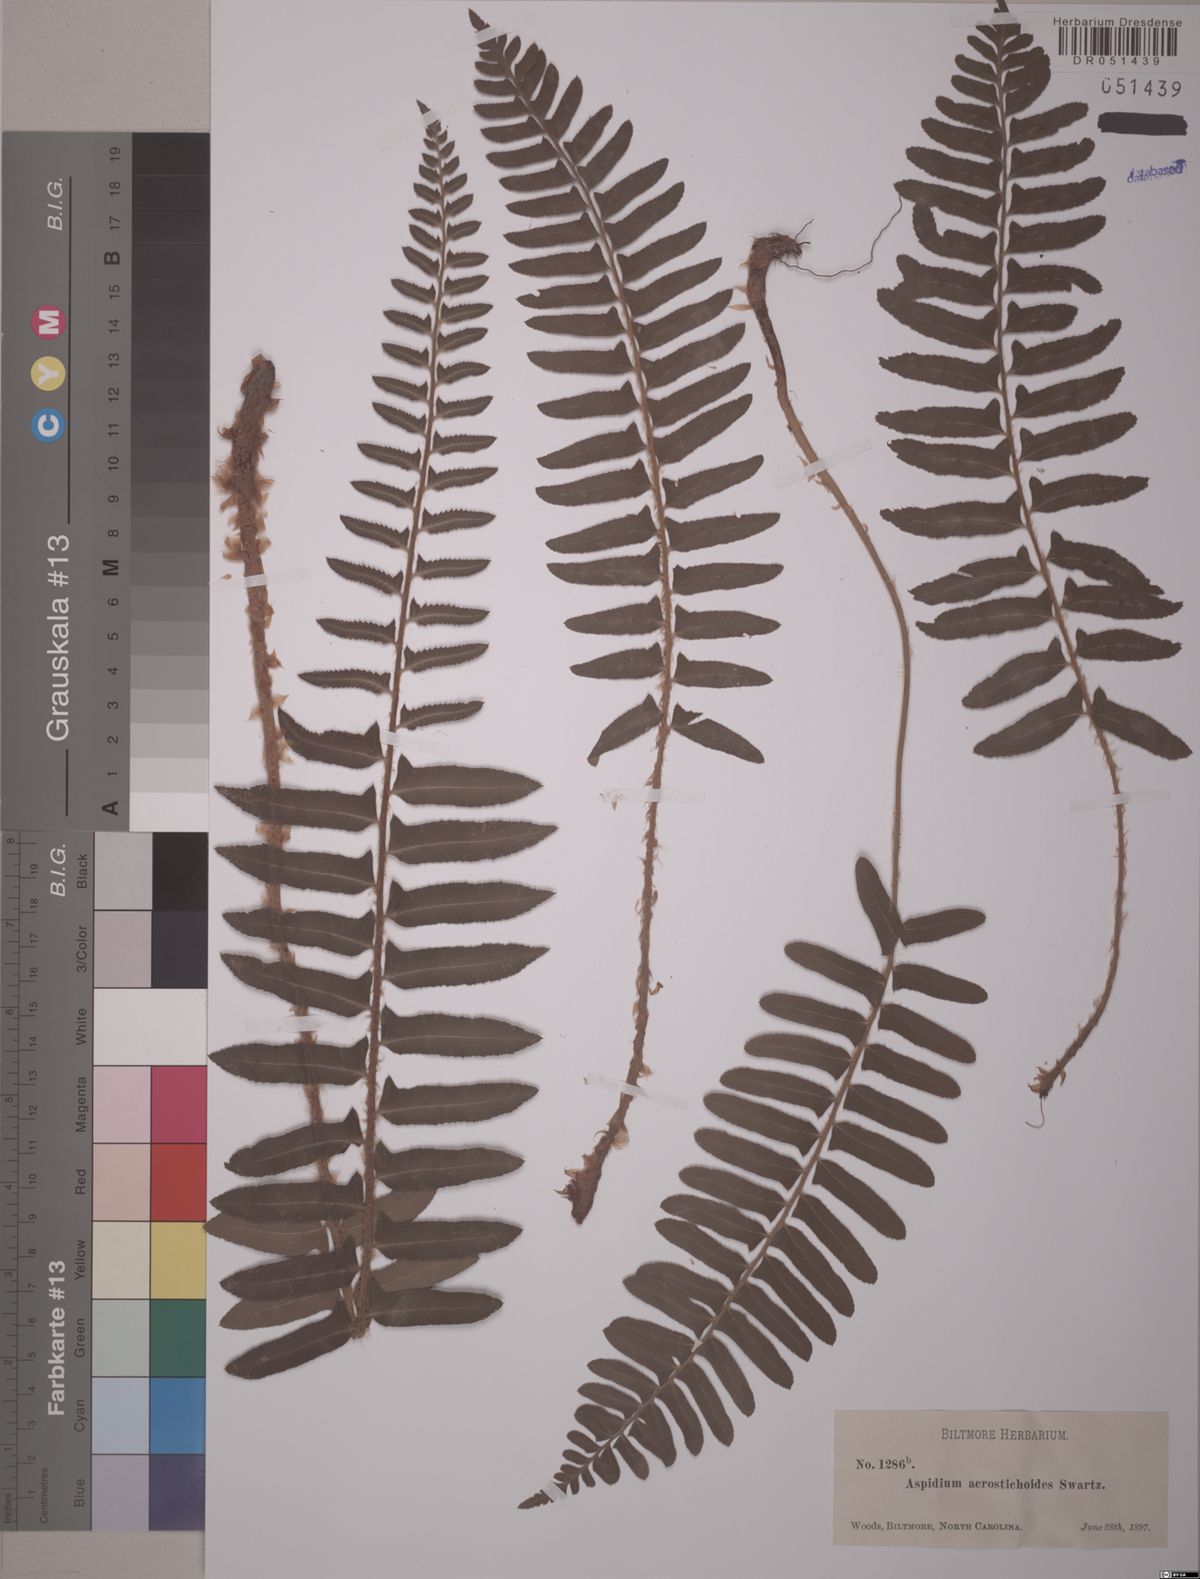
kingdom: Plantae
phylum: Tracheophyta
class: Polypodiopsida
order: Polypodiales
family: Dryopteridaceae
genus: Polystichum
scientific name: Polystichum acrostichoides
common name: Christmas fern
